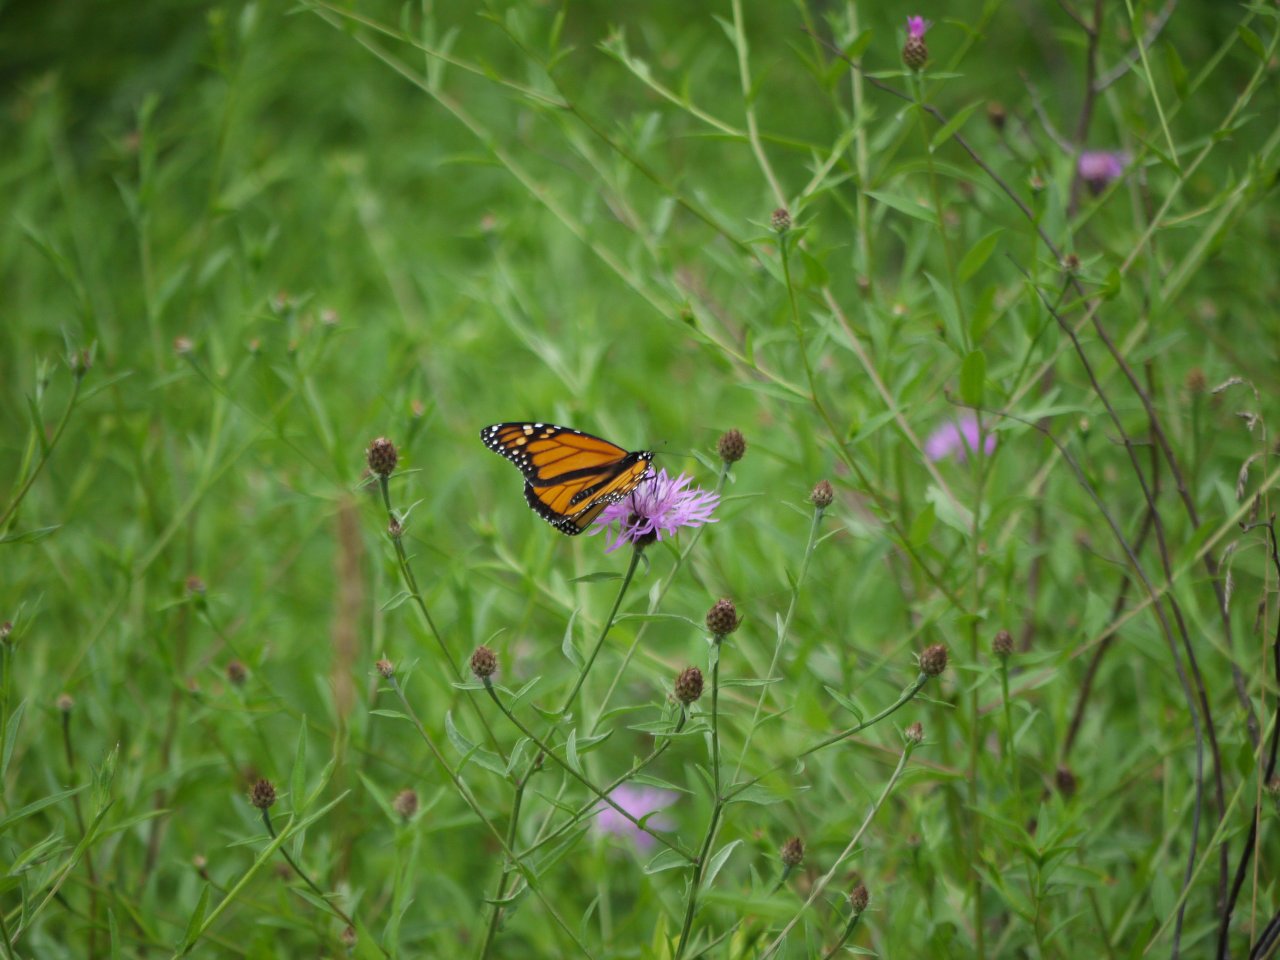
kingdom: Animalia
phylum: Arthropoda
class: Insecta
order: Lepidoptera
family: Nymphalidae
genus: Danaus
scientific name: Danaus plexippus
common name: Monarch
